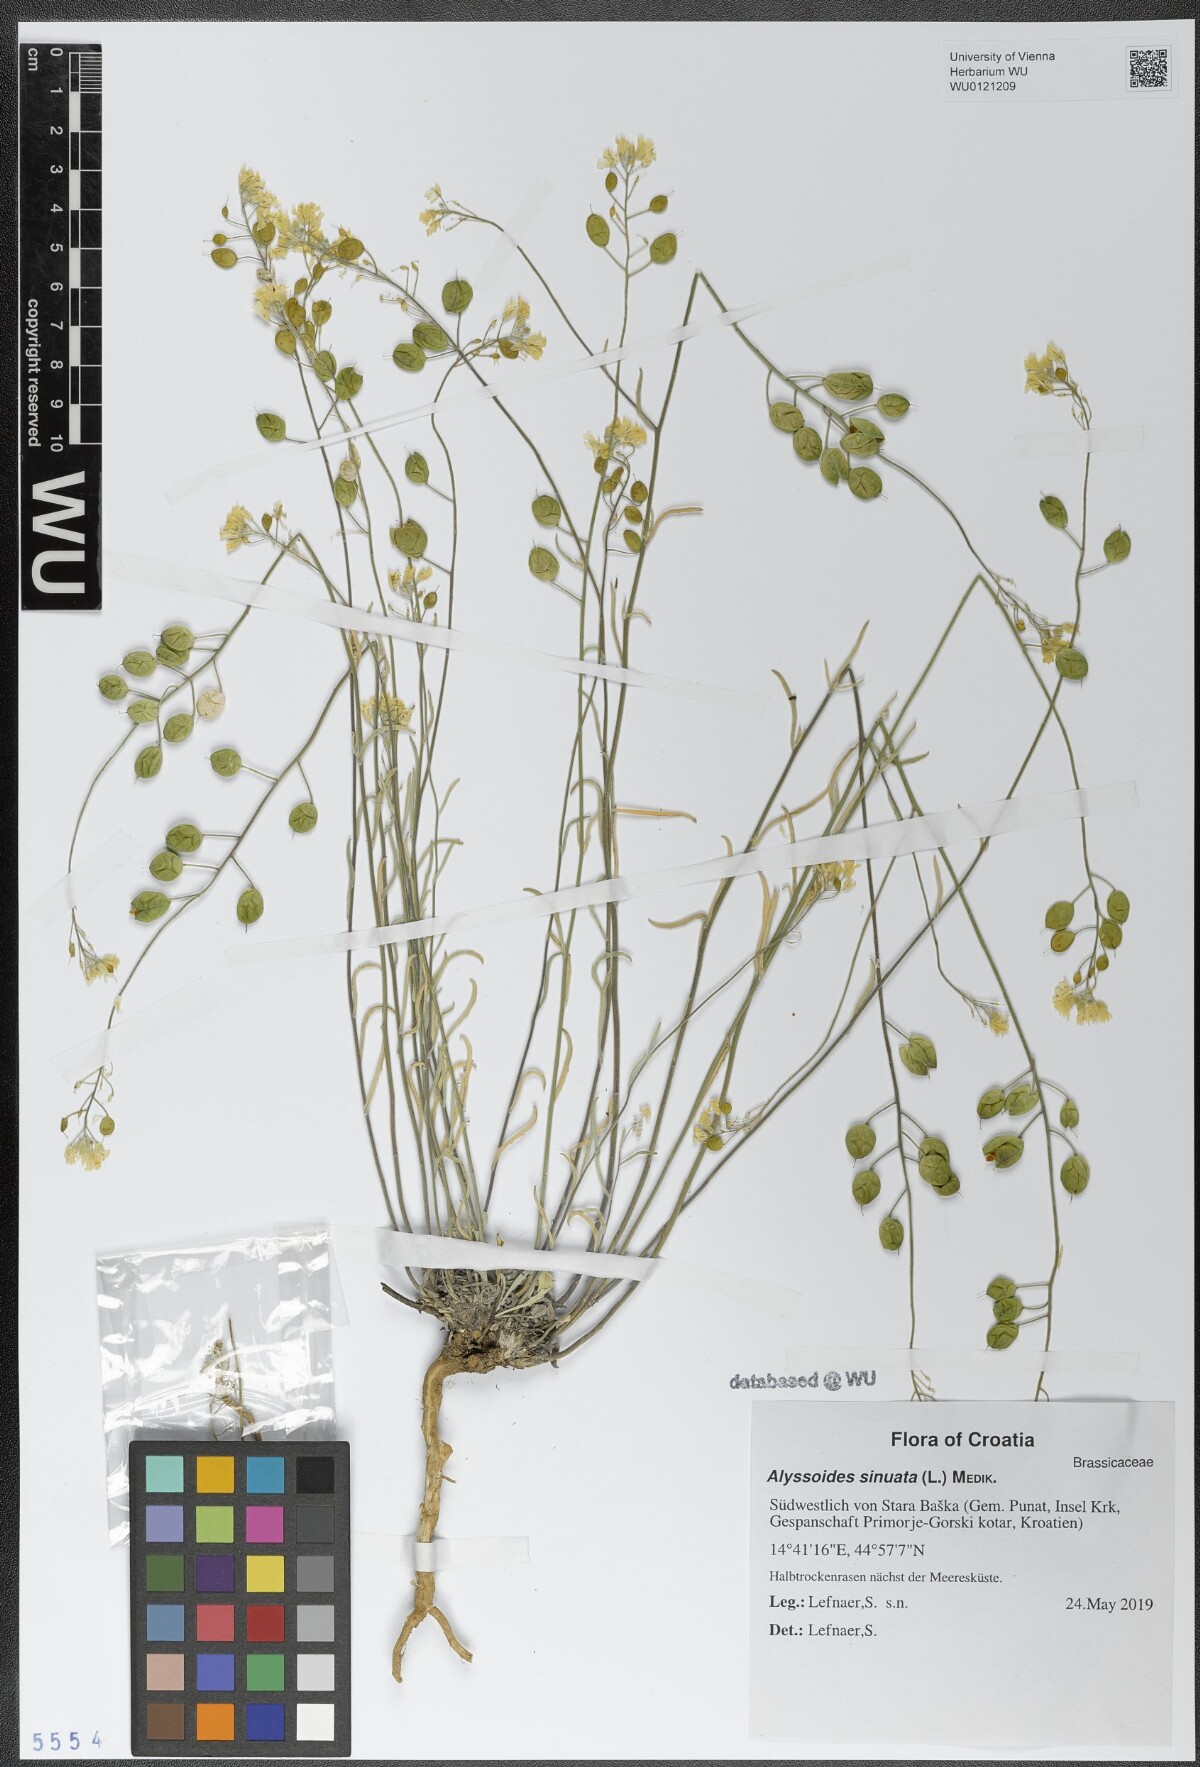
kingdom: Plantae
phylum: Tracheophyta
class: Magnoliopsida
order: Brassicales
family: Brassicaceae
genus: Aurinia
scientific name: Aurinia sinuata
